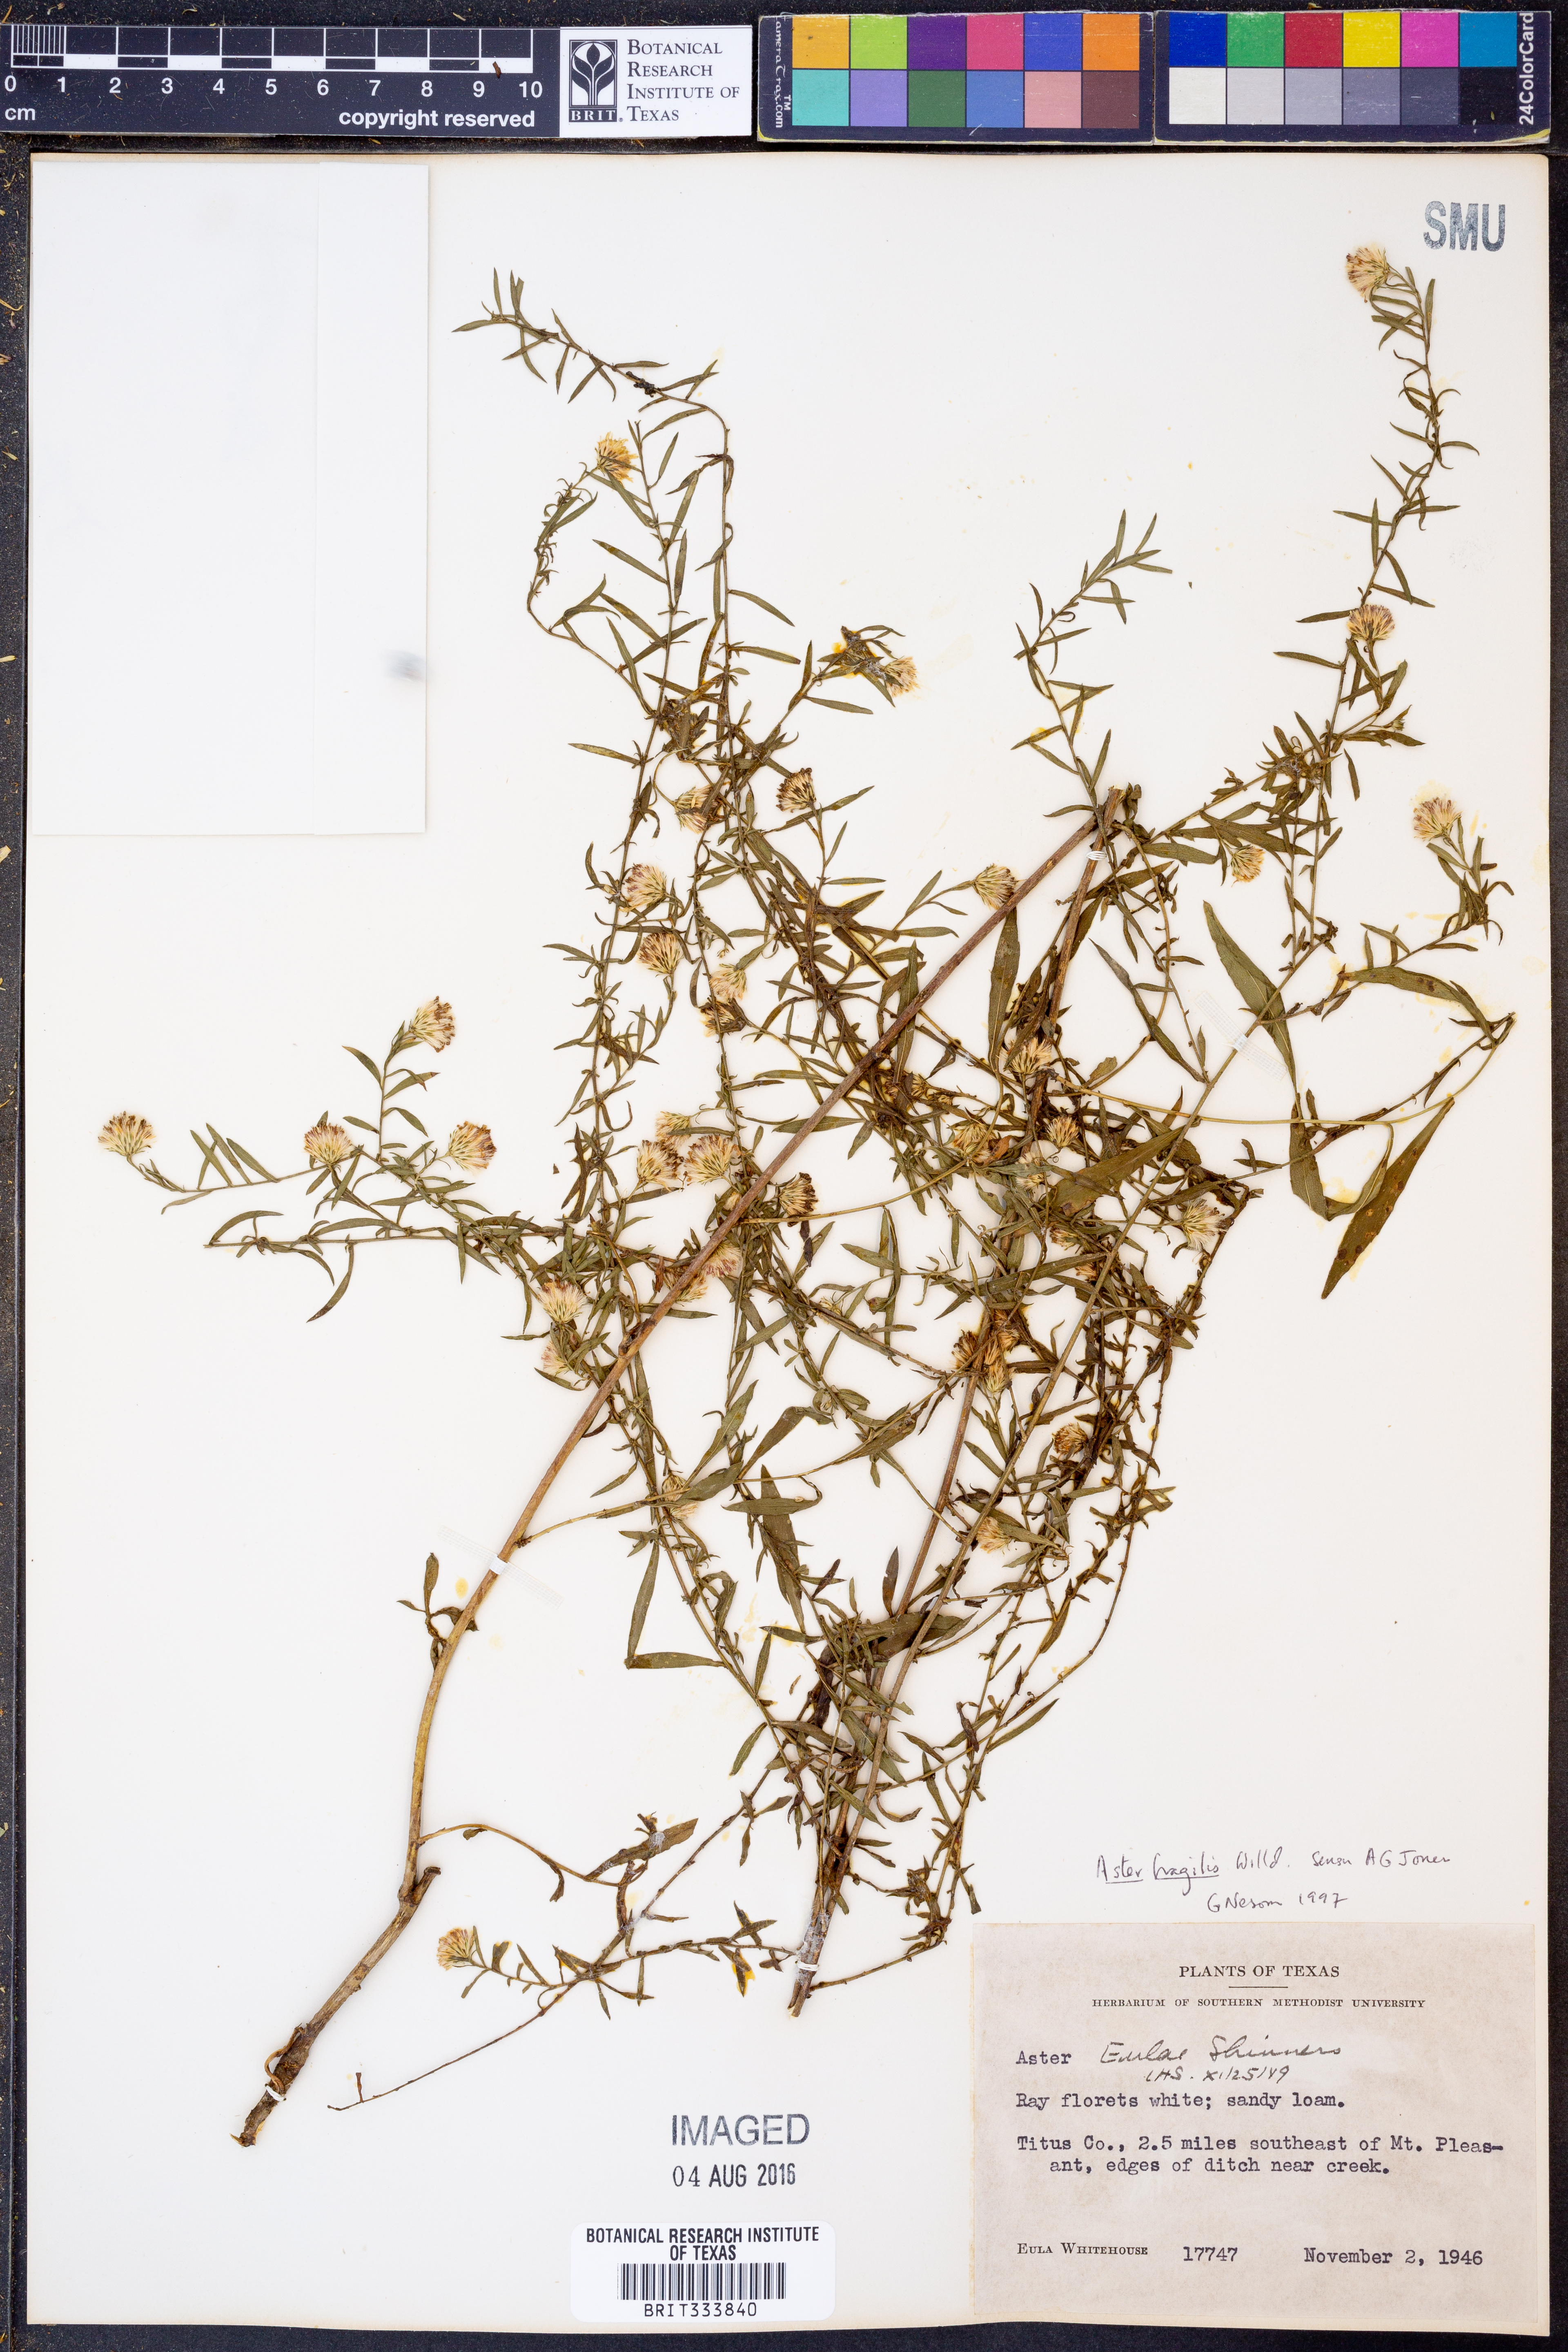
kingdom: Plantae
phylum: Tracheophyta
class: Magnoliopsida
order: Asterales
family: Asteraceae
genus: Aster
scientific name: Aster fragilis
